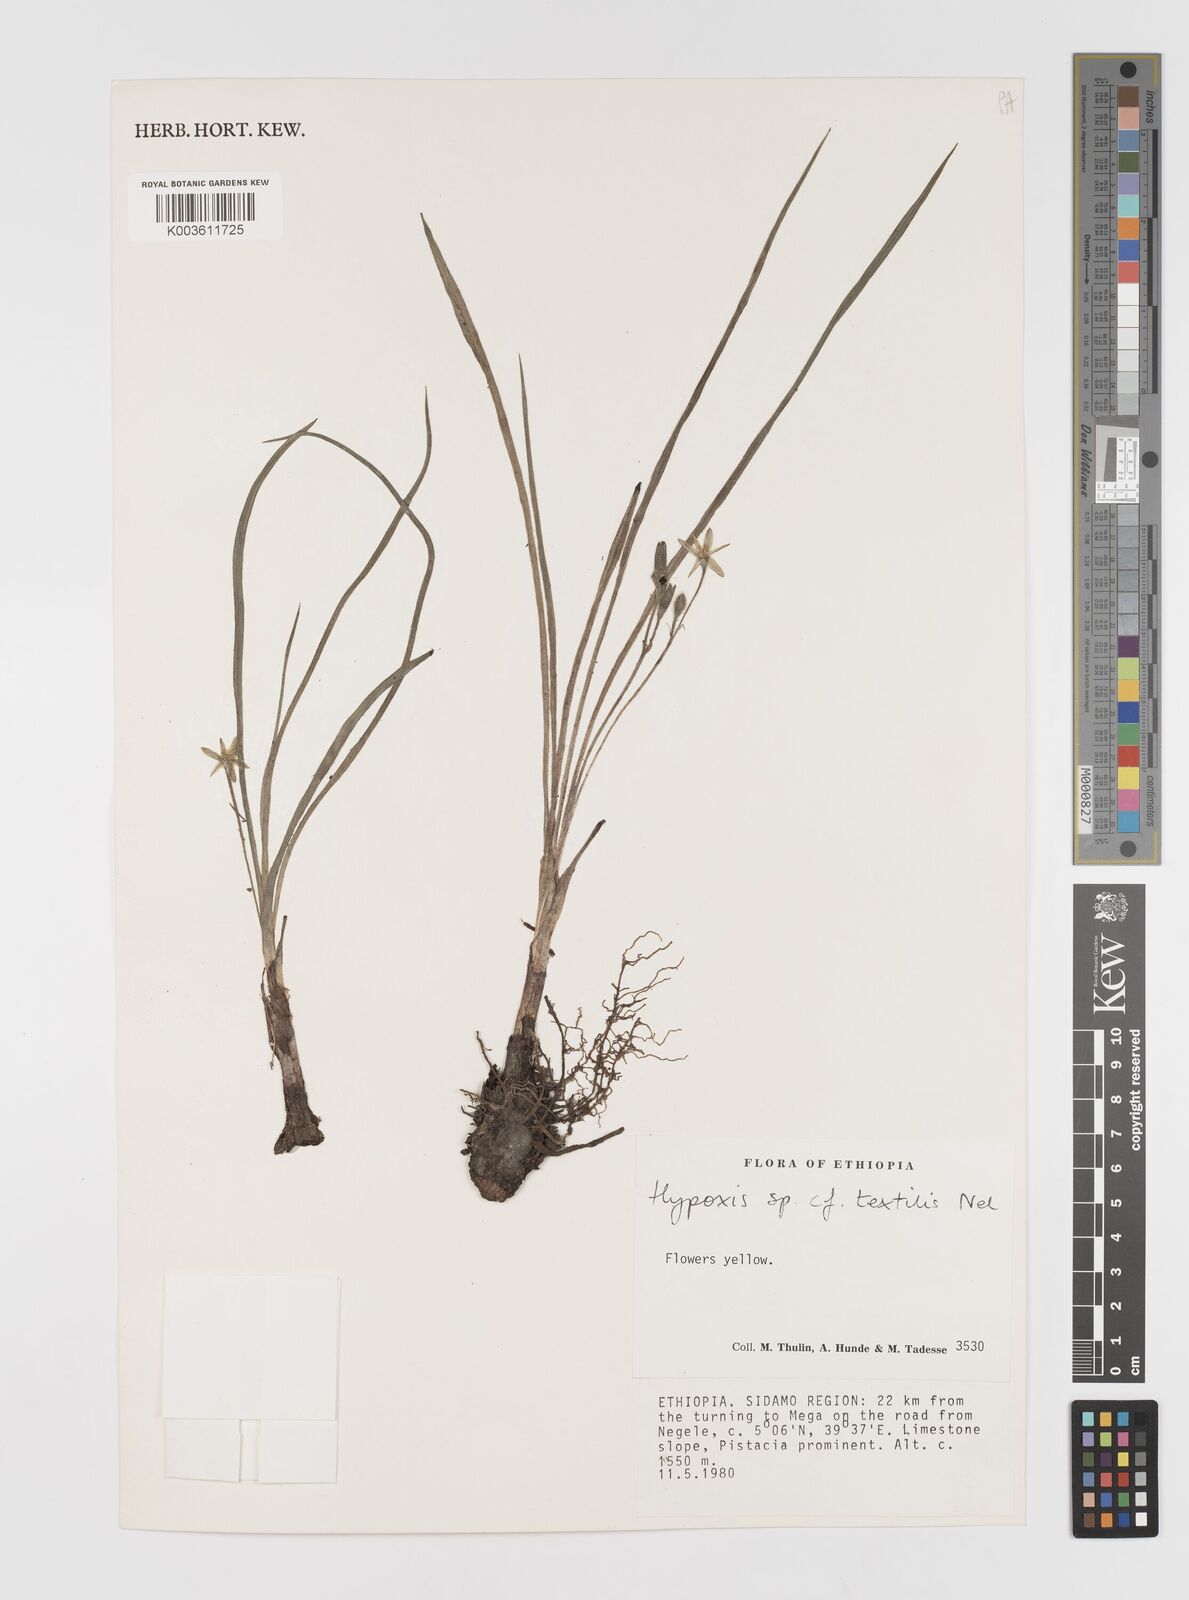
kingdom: Plantae
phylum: Tracheophyta
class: Liliopsida
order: Asparagales
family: Hypoxidaceae
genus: Hypoxis
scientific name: Hypoxis
